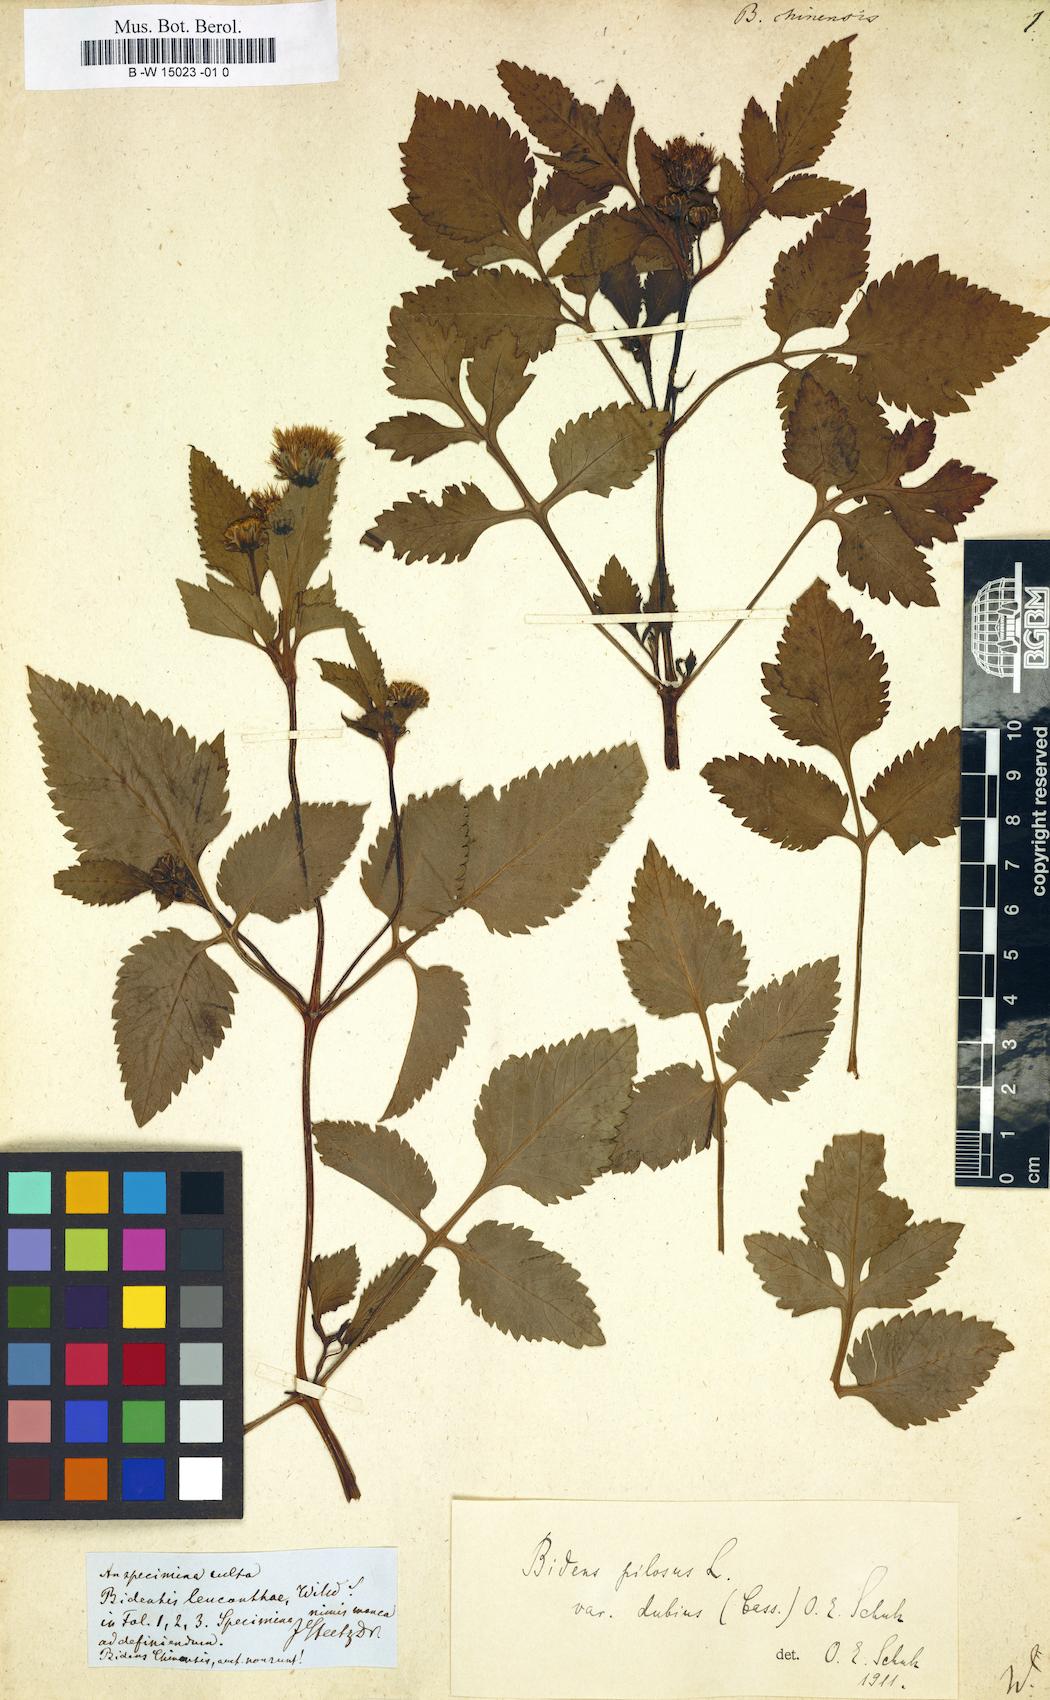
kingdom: Plantae
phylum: Tracheophyta
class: Magnoliopsida
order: Asterales
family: Asteraceae
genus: Bidens
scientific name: Bidens biternata
